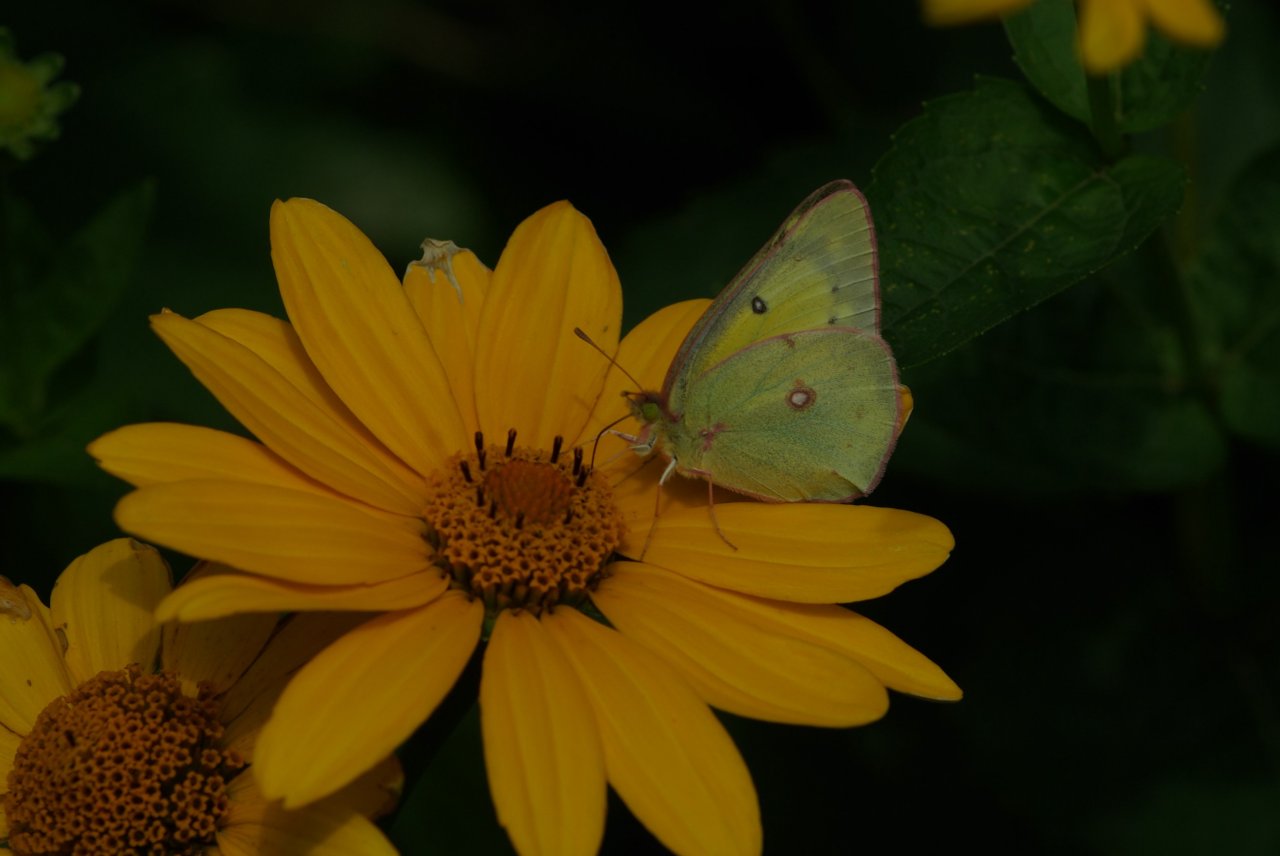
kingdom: Animalia
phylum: Arthropoda
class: Insecta
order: Lepidoptera
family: Pieridae
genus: Colias
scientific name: Colias eurytheme
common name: Orange Sulphur
